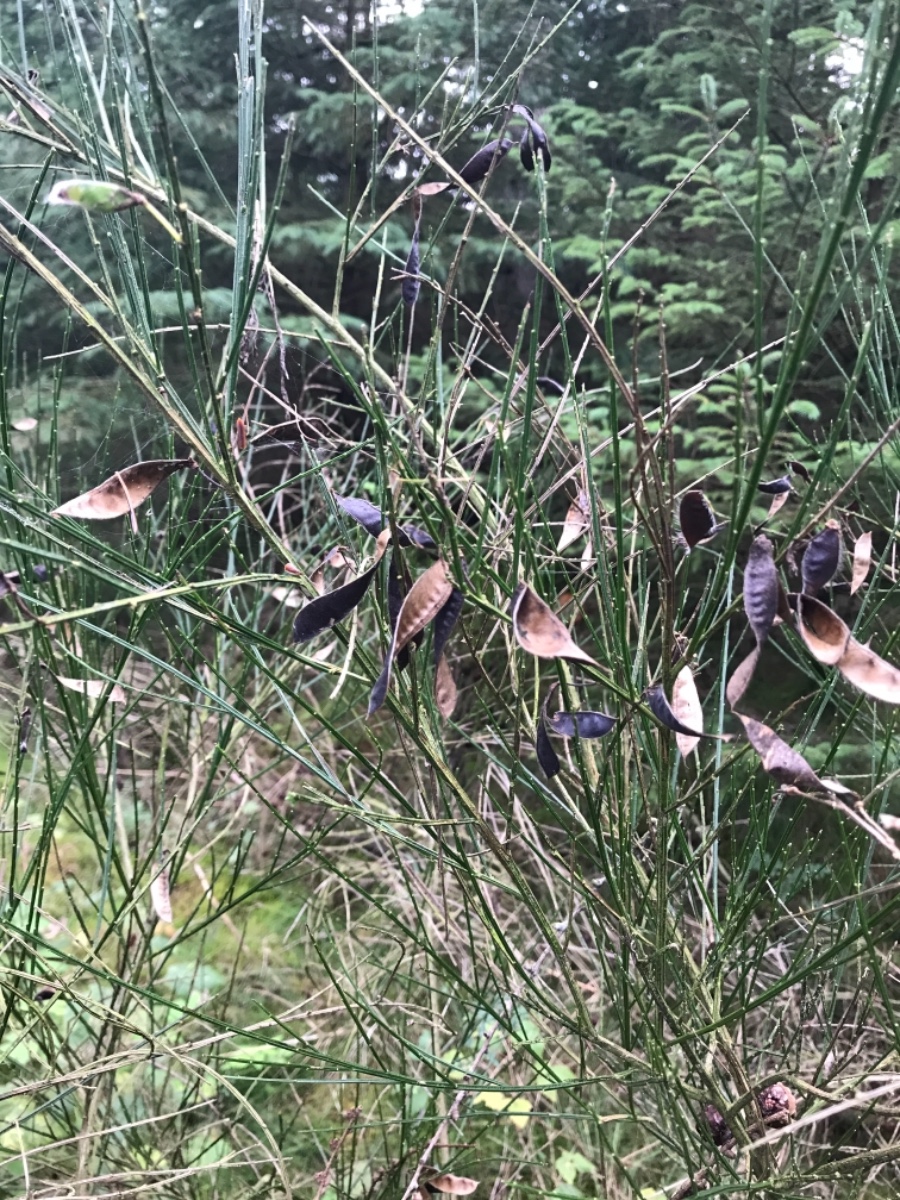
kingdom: Fungi
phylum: Basidiomycota
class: Agaricomycetes
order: Agaricales
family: Hygrophoraceae
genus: Hygrocybe
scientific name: Hygrocybe conica
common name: kegle-vokshat
